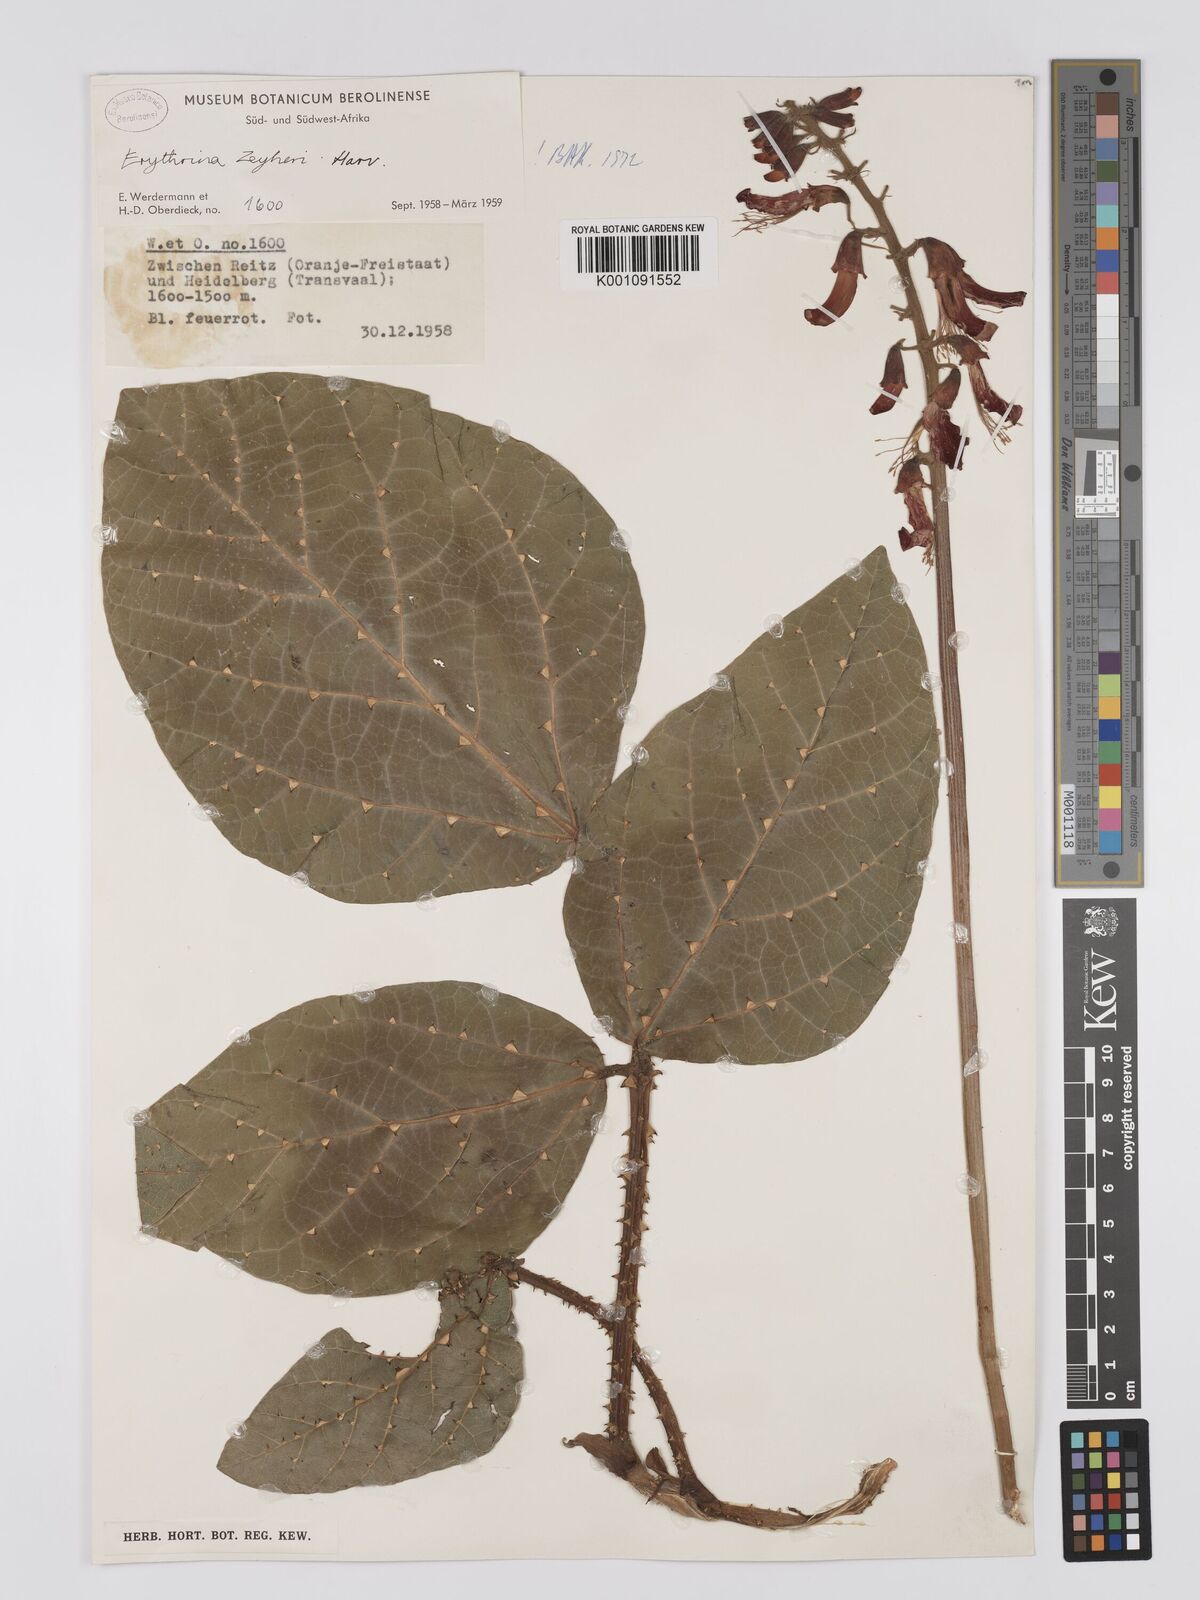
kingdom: Plantae
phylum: Tracheophyta
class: Magnoliopsida
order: Fabales
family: Fabaceae
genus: Erythrina
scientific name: Erythrina zeyheri
